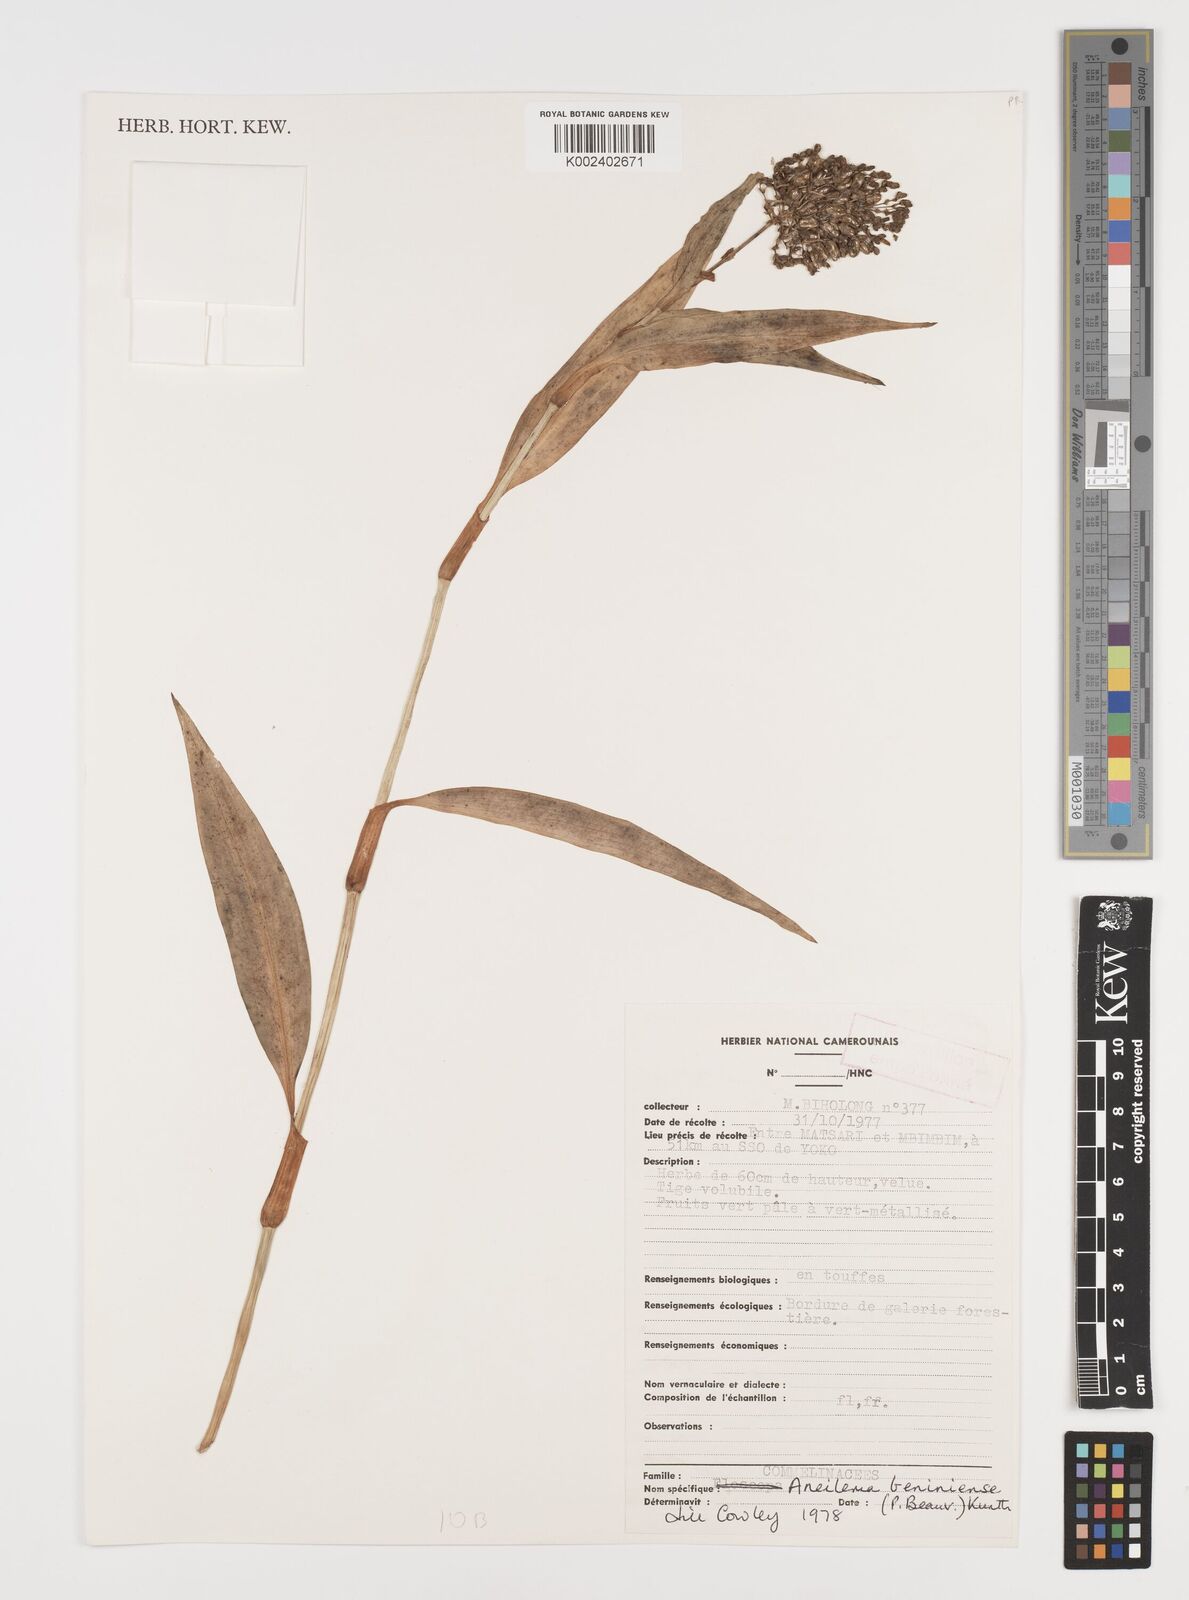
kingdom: Plantae
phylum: Tracheophyta
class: Liliopsida
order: Commelinales
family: Commelinaceae
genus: Aneilema
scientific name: Aneilema beniniense
